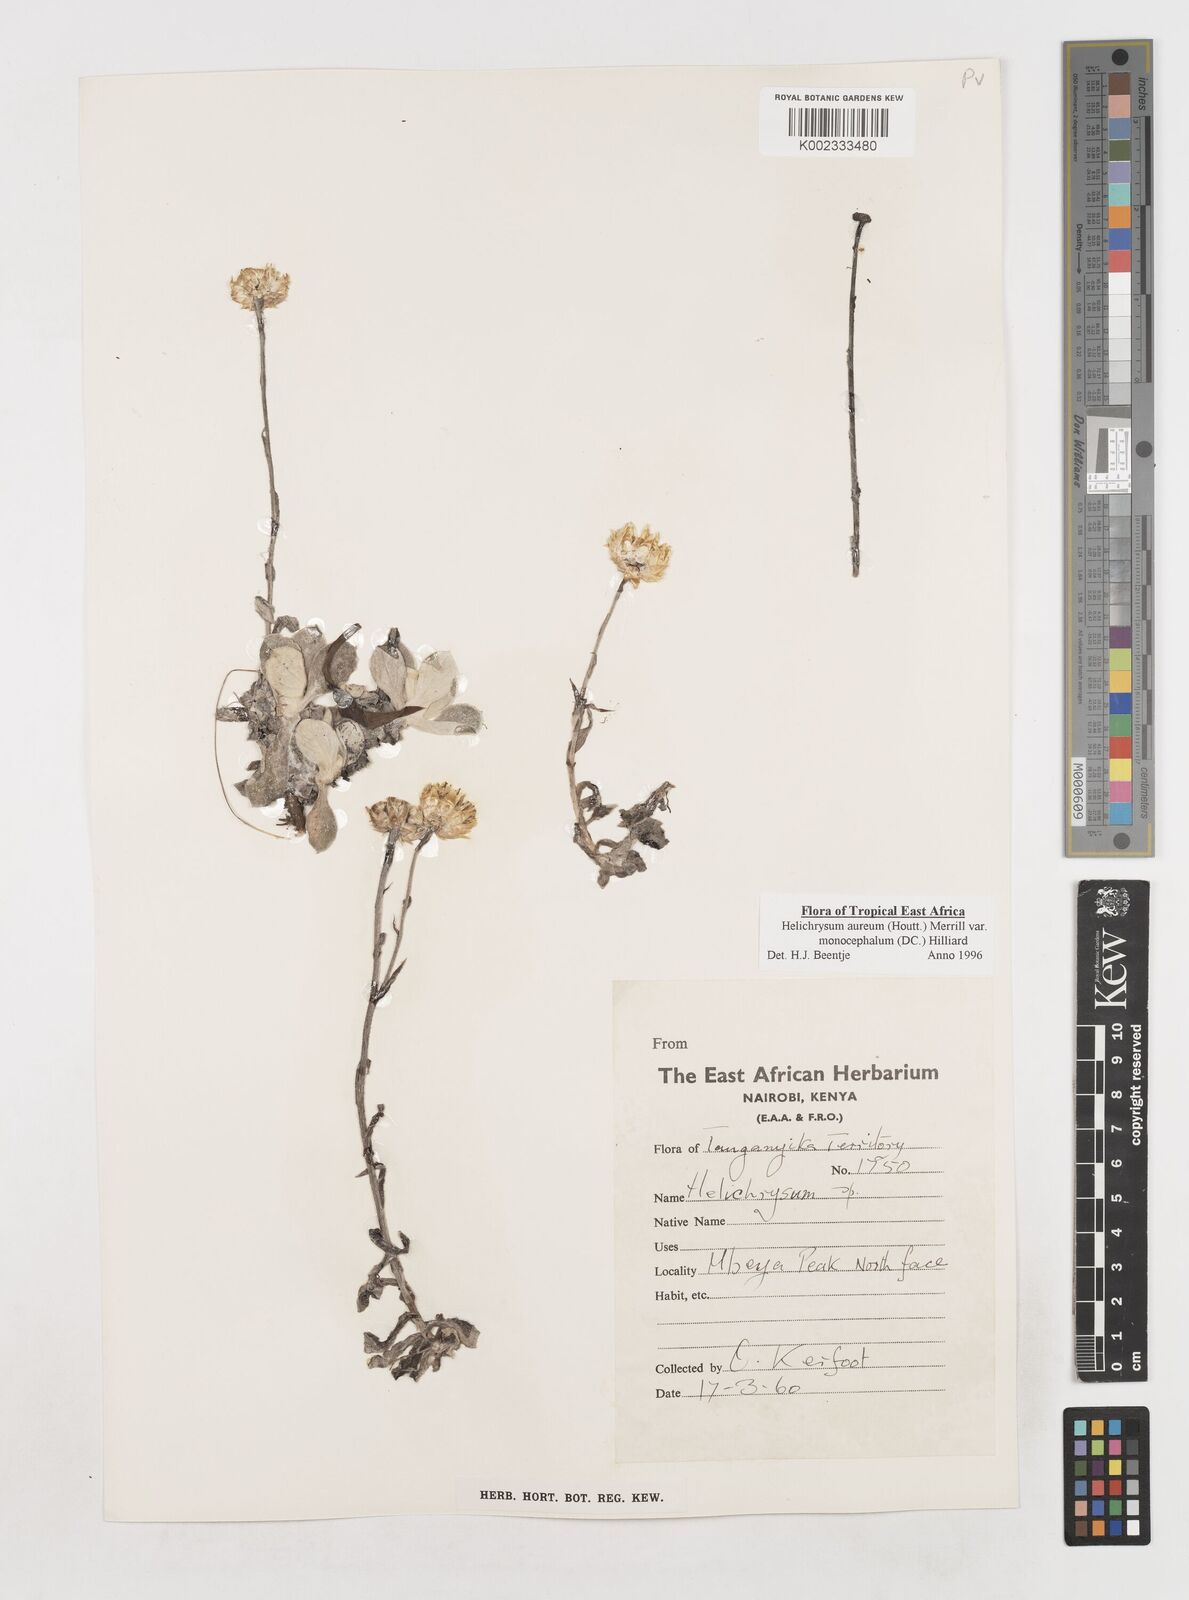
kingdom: Plantae
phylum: Tracheophyta
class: Magnoliopsida
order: Asterales
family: Asteraceae
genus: Helichrysum
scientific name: Helichrysum aureum
